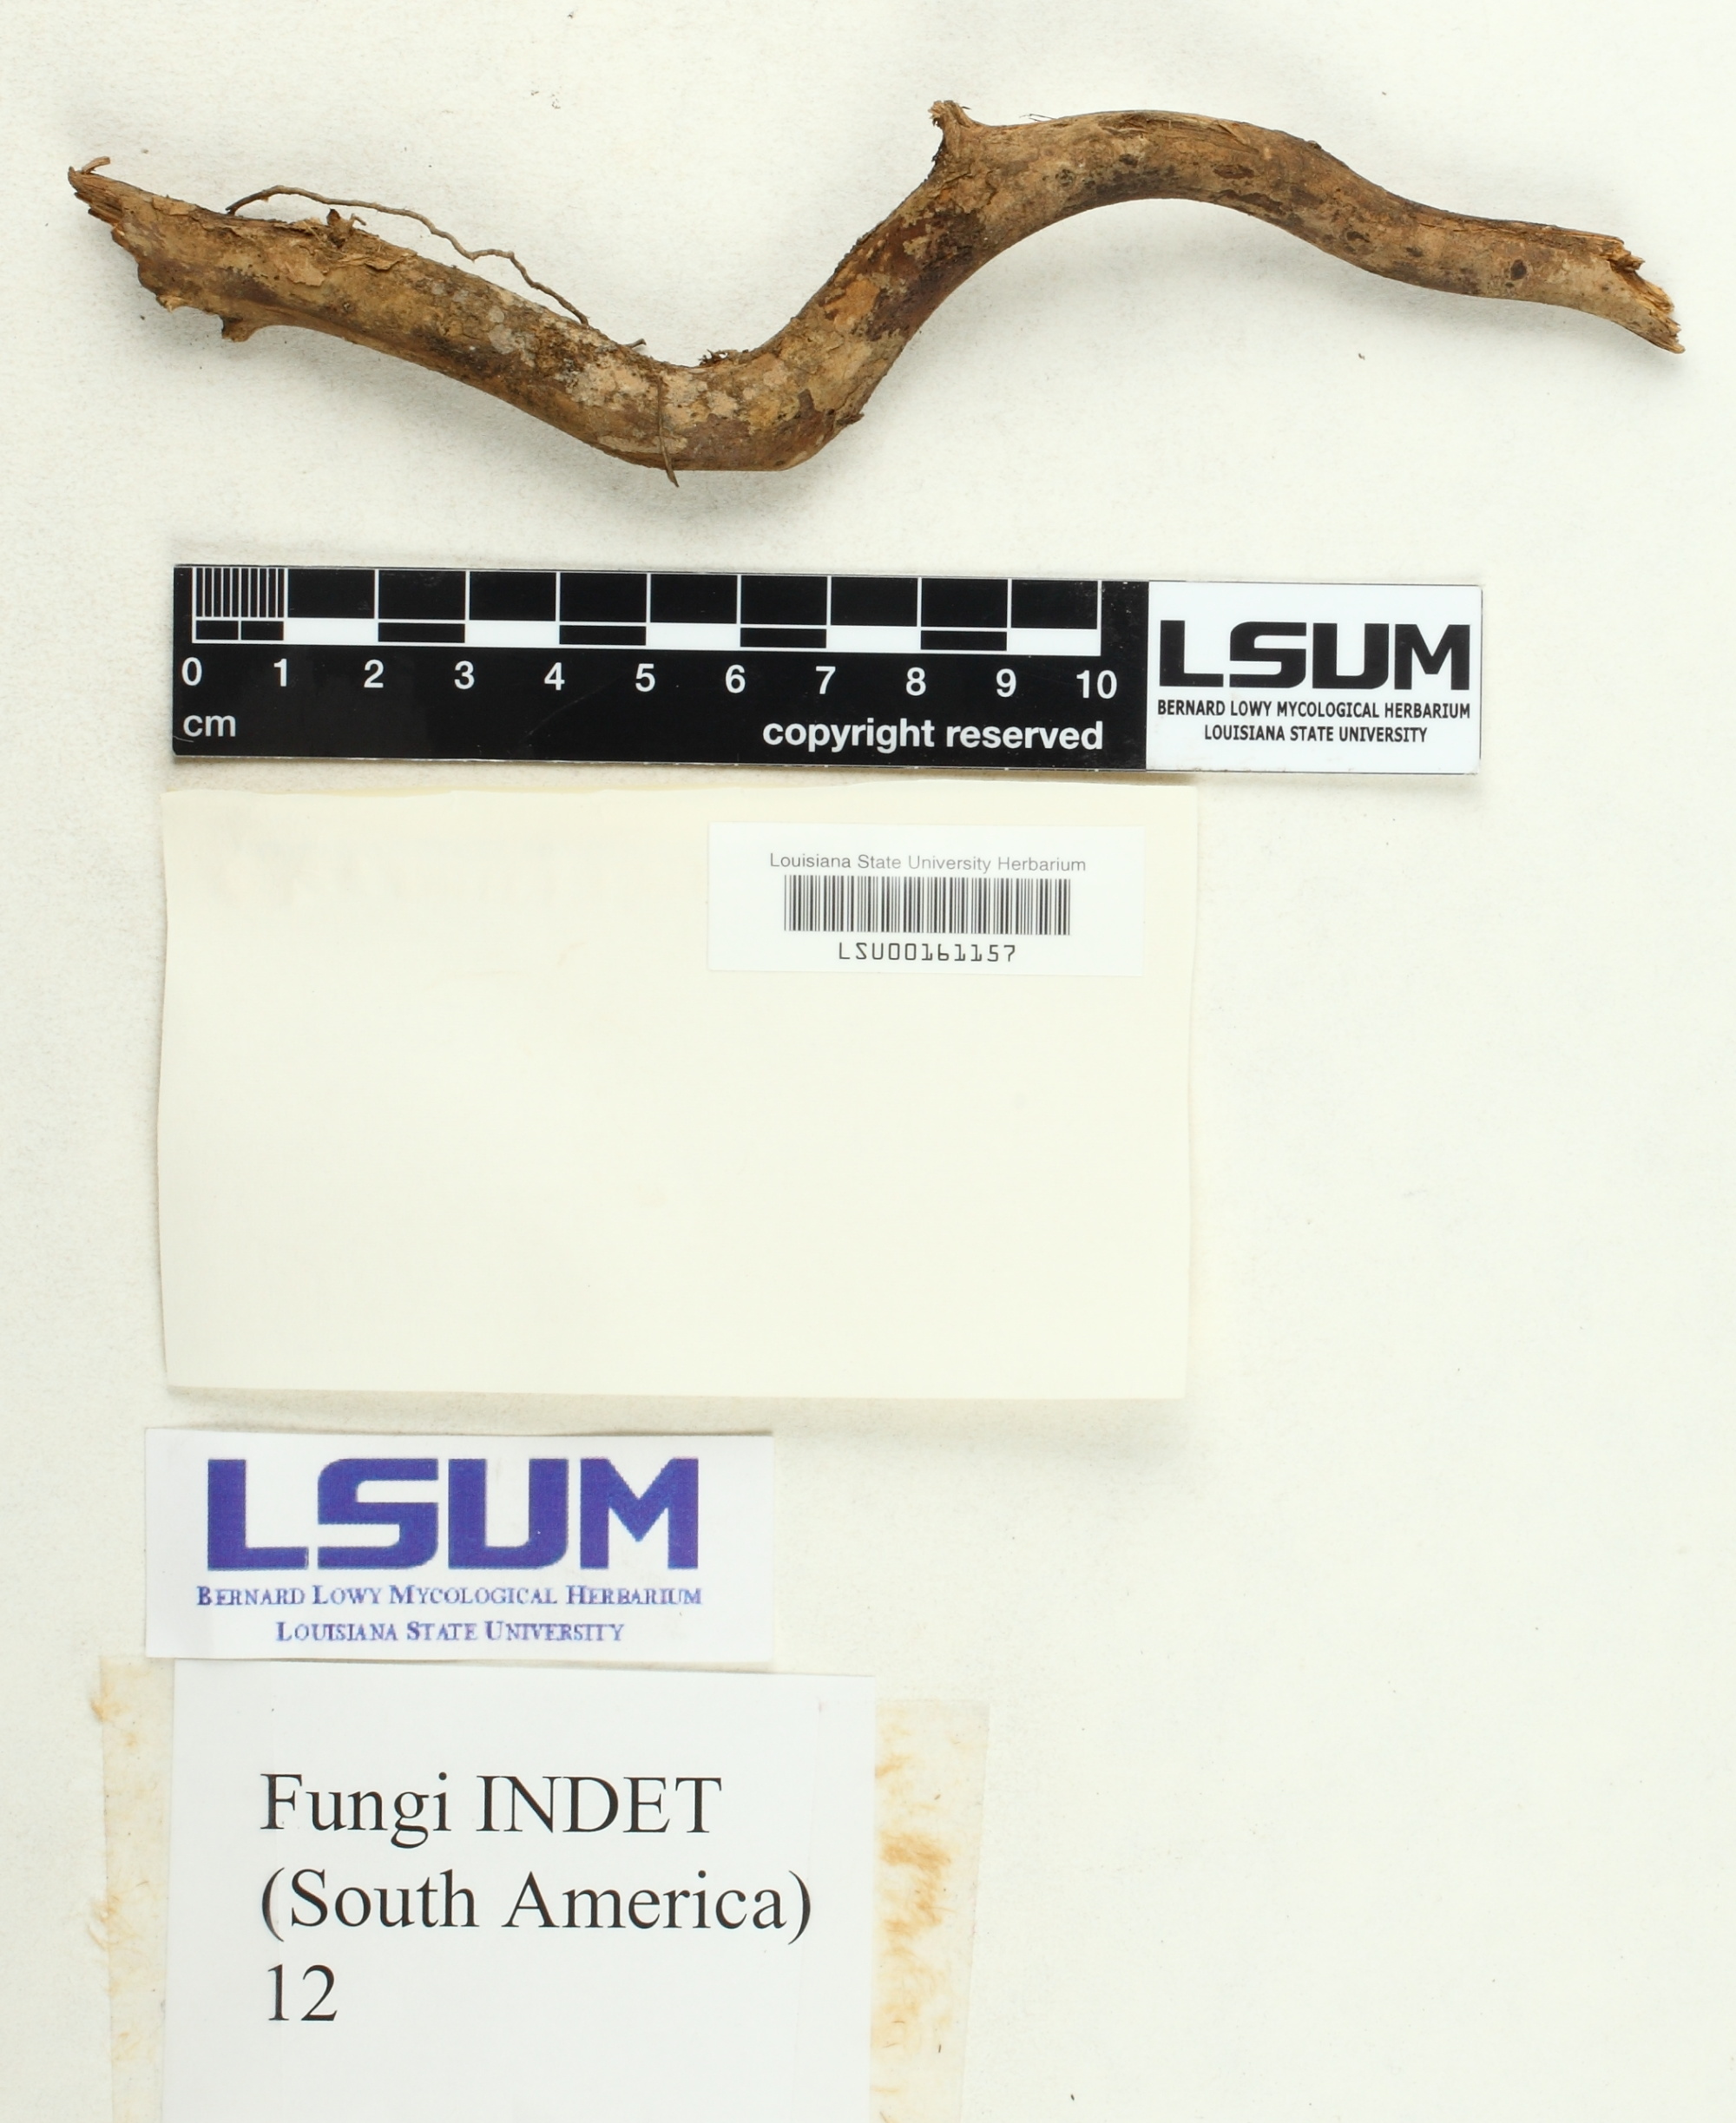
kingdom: Fungi
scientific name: Fungi
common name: Fungi
